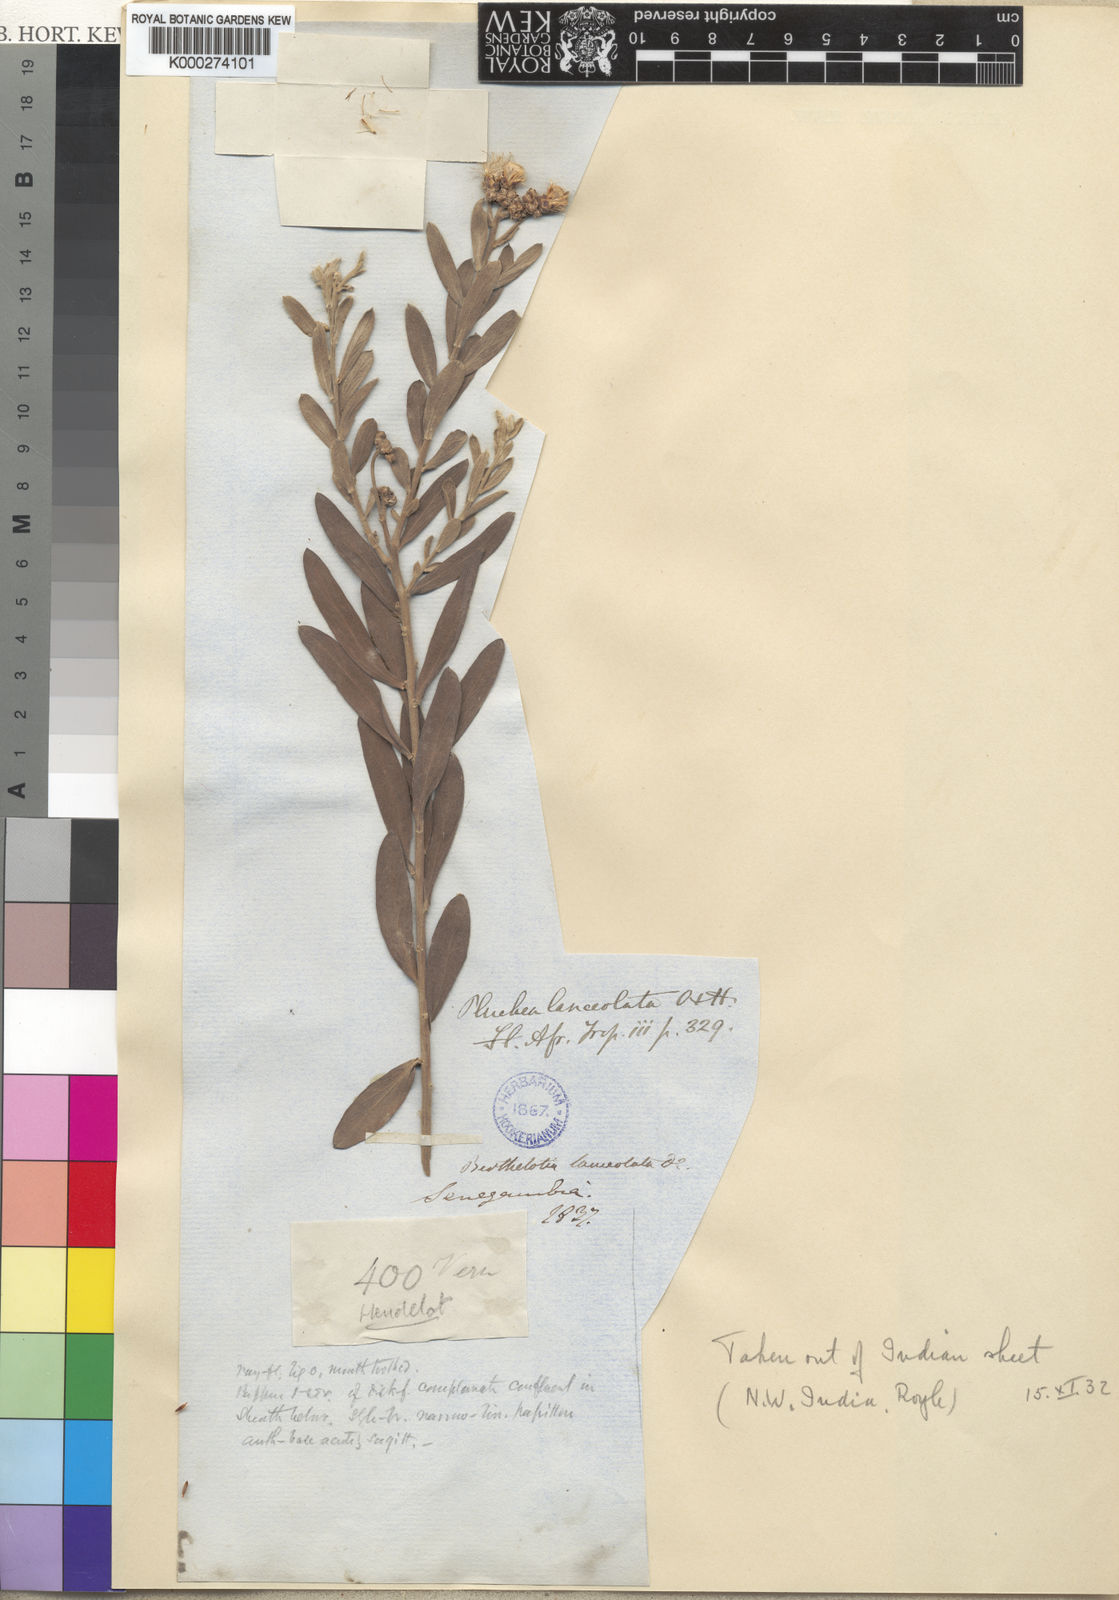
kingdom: Plantae
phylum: Tracheophyta
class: Magnoliopsida
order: Asterales
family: Asteraceae
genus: Pluchea
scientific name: Pluchea lanceolata
